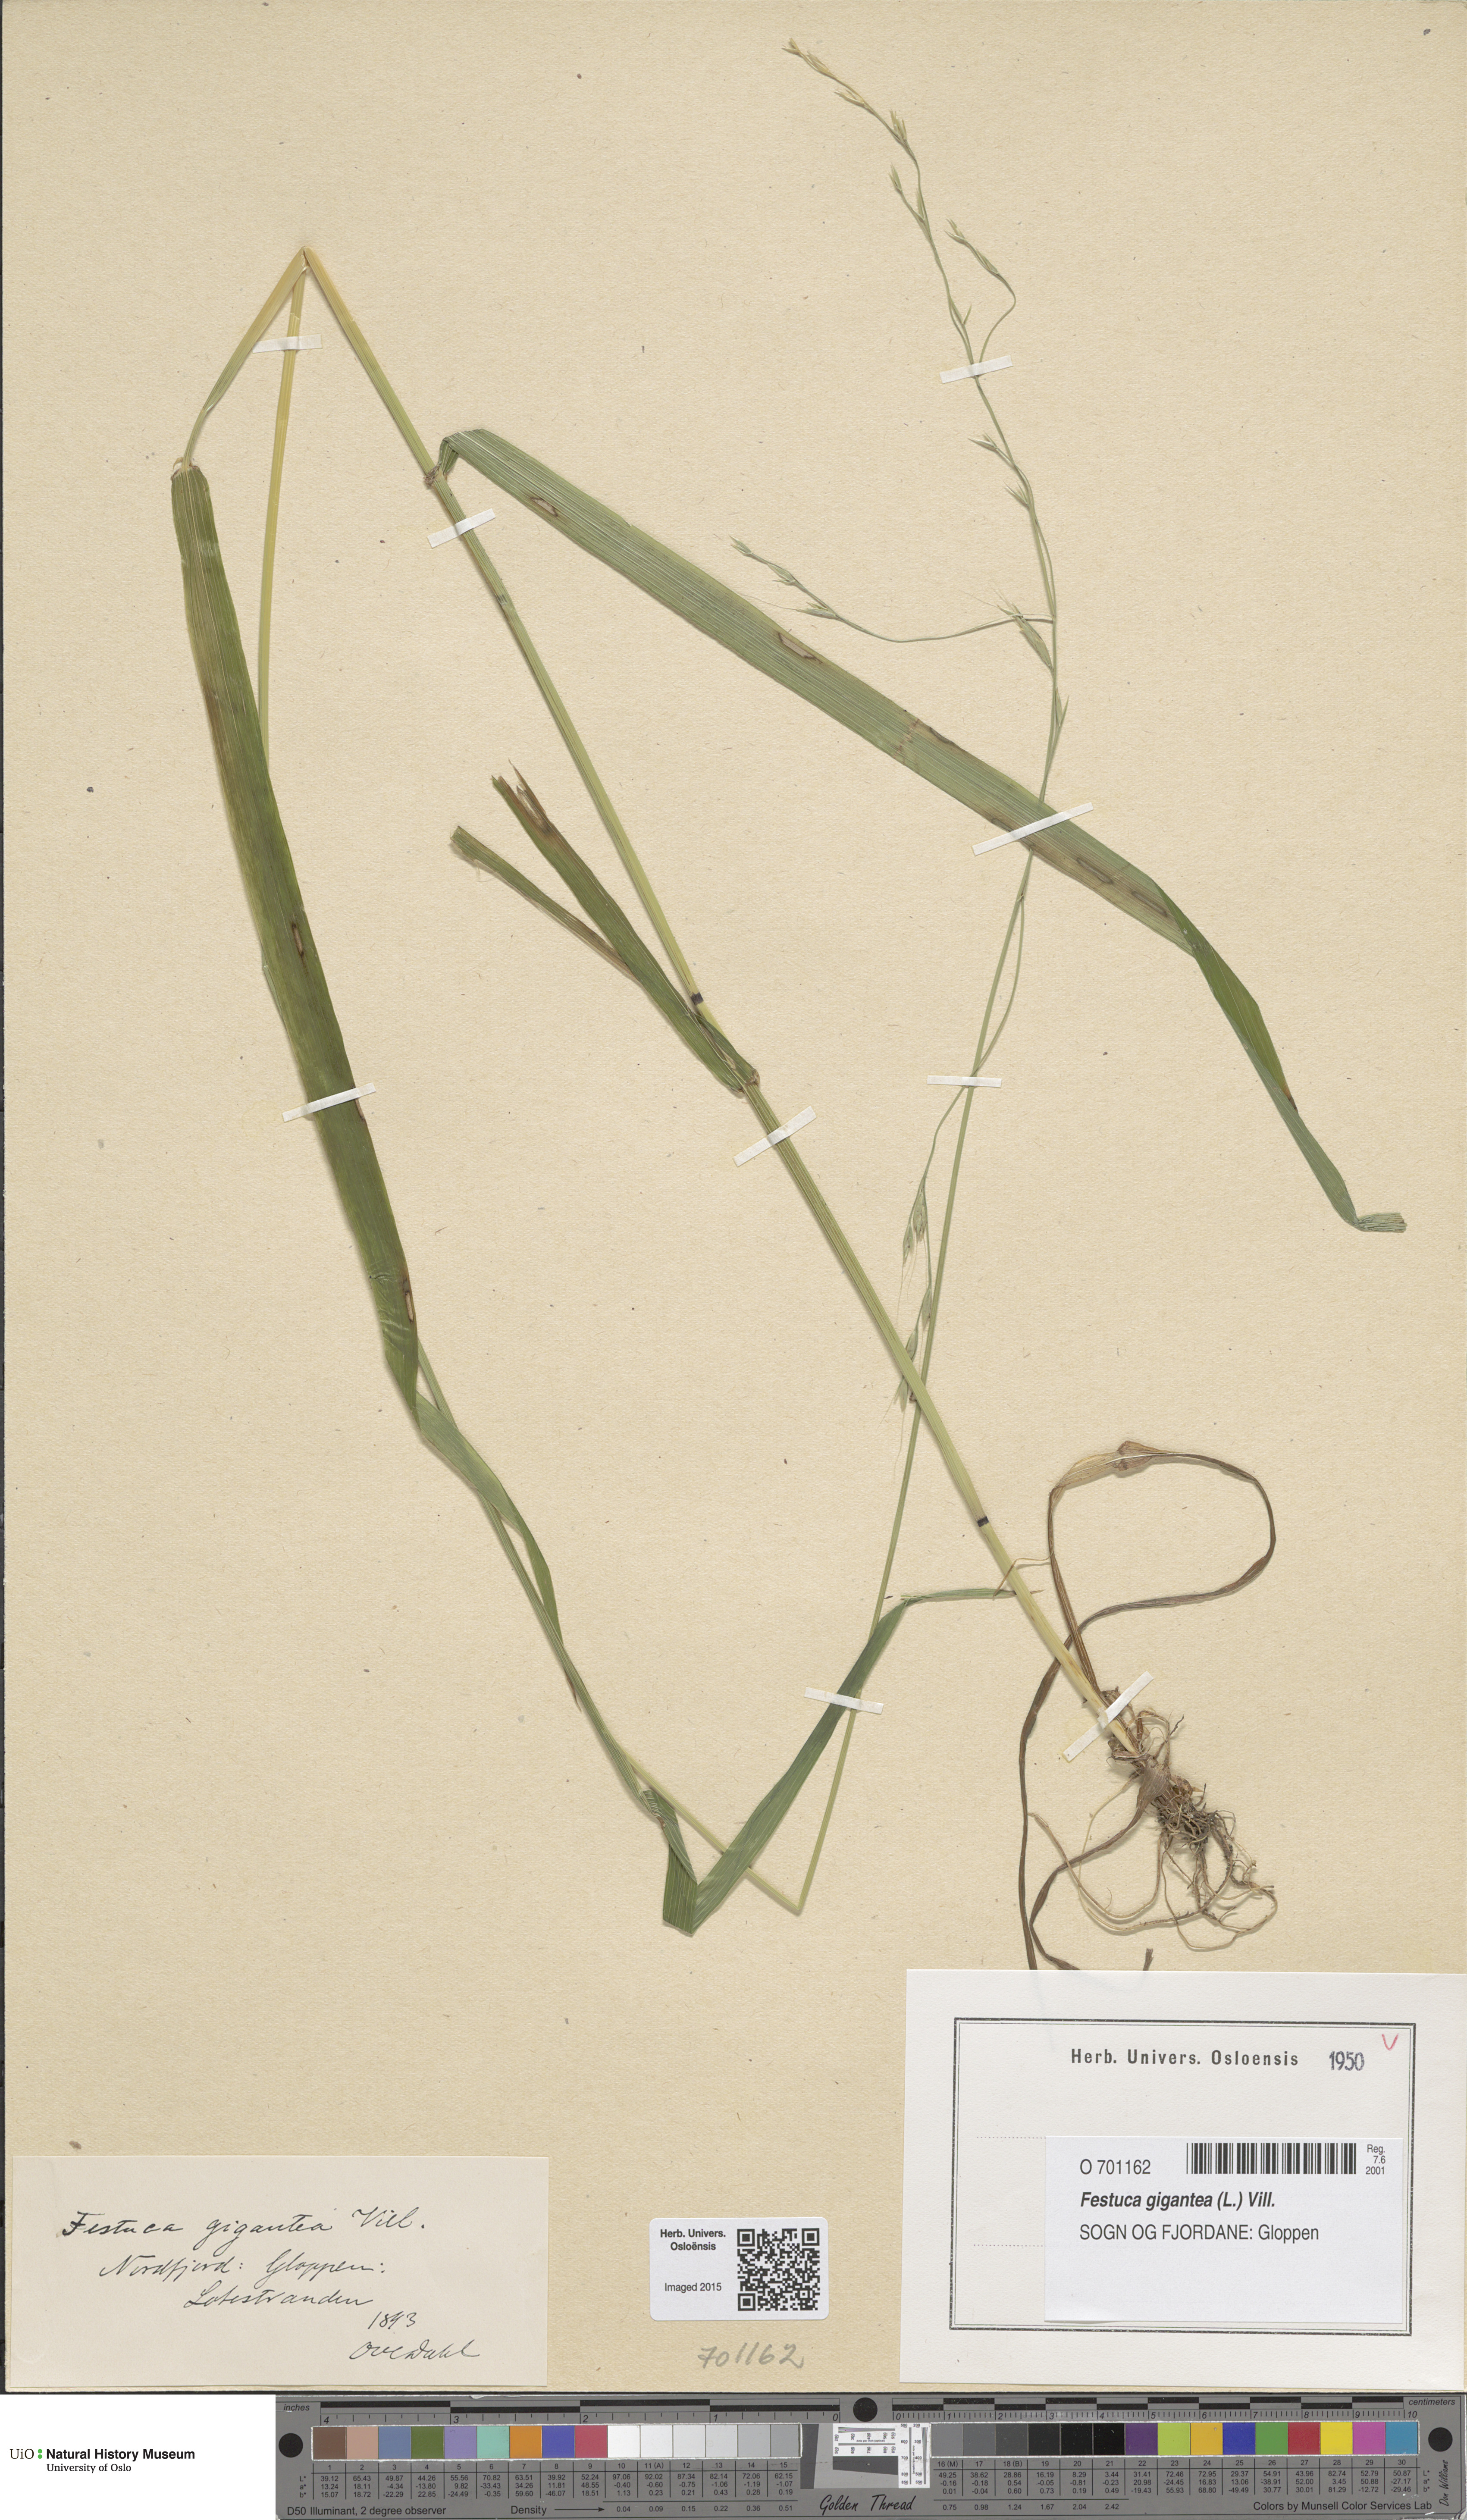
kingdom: Plantae
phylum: Tracheophyta
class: Liliopsida
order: Poales
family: Poaceae
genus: Lolium
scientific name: Lolium giganteum
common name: Giant fescue
